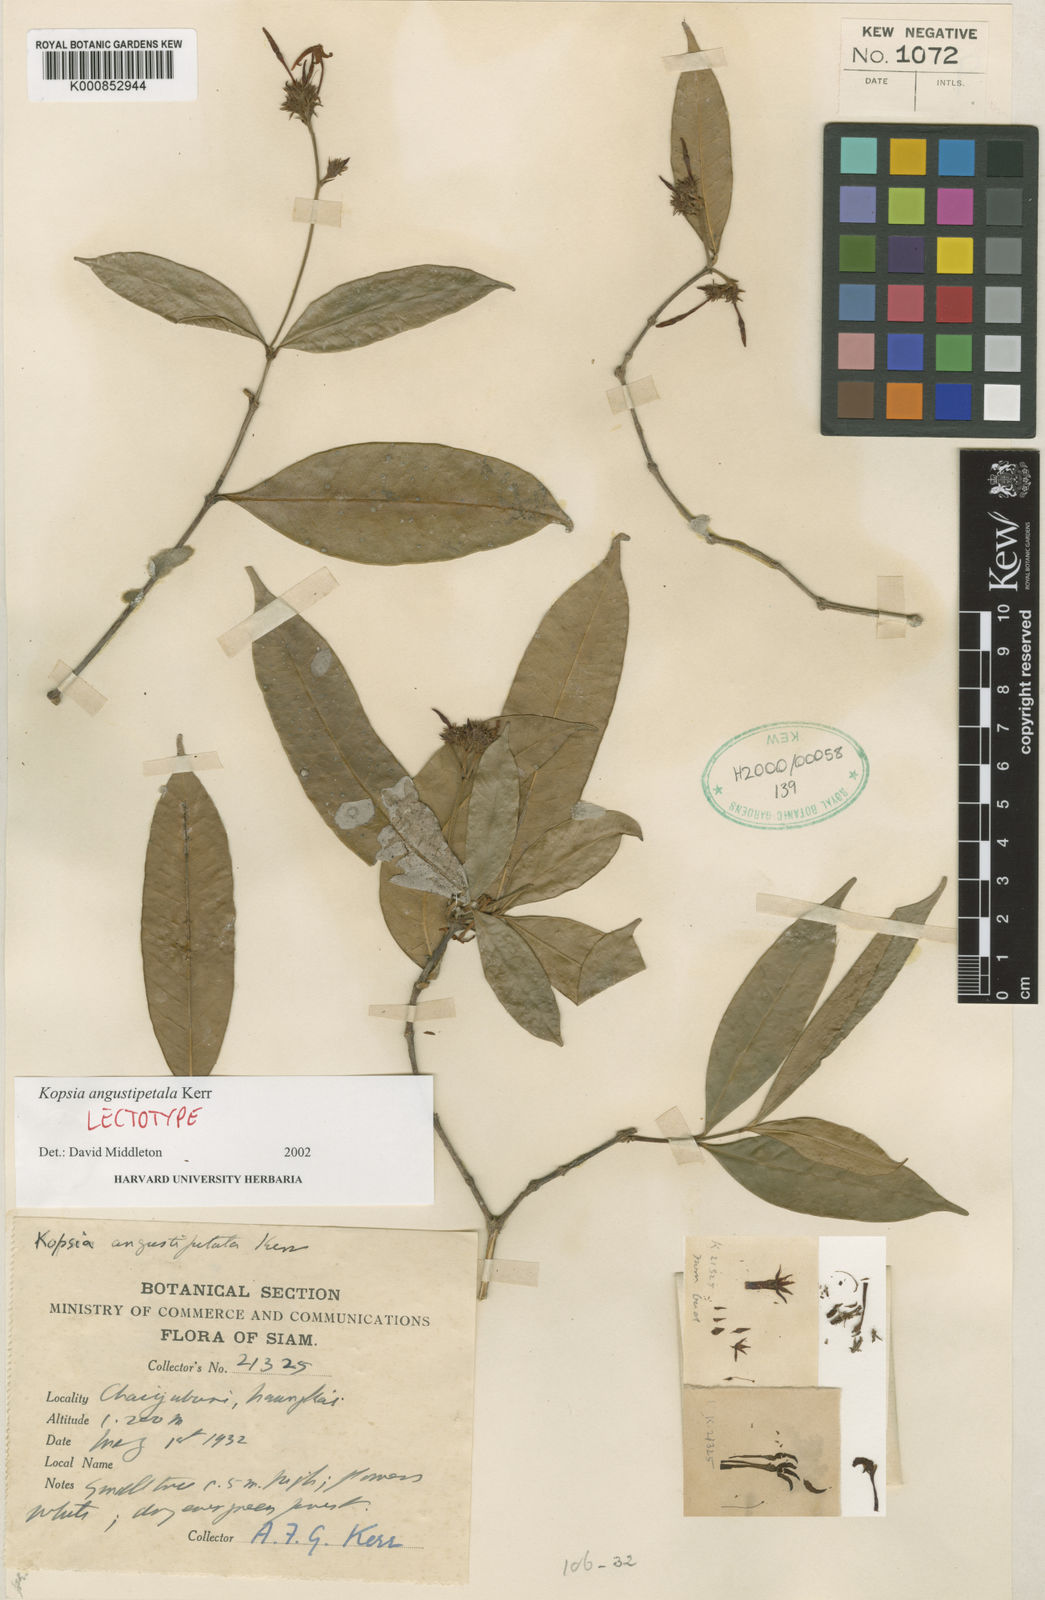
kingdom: Plantae
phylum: Tracheophyta
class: Magnoliopsida
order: Gentianales
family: Apocynaceae
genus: Kopsia
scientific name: Kopsia angustipetala
